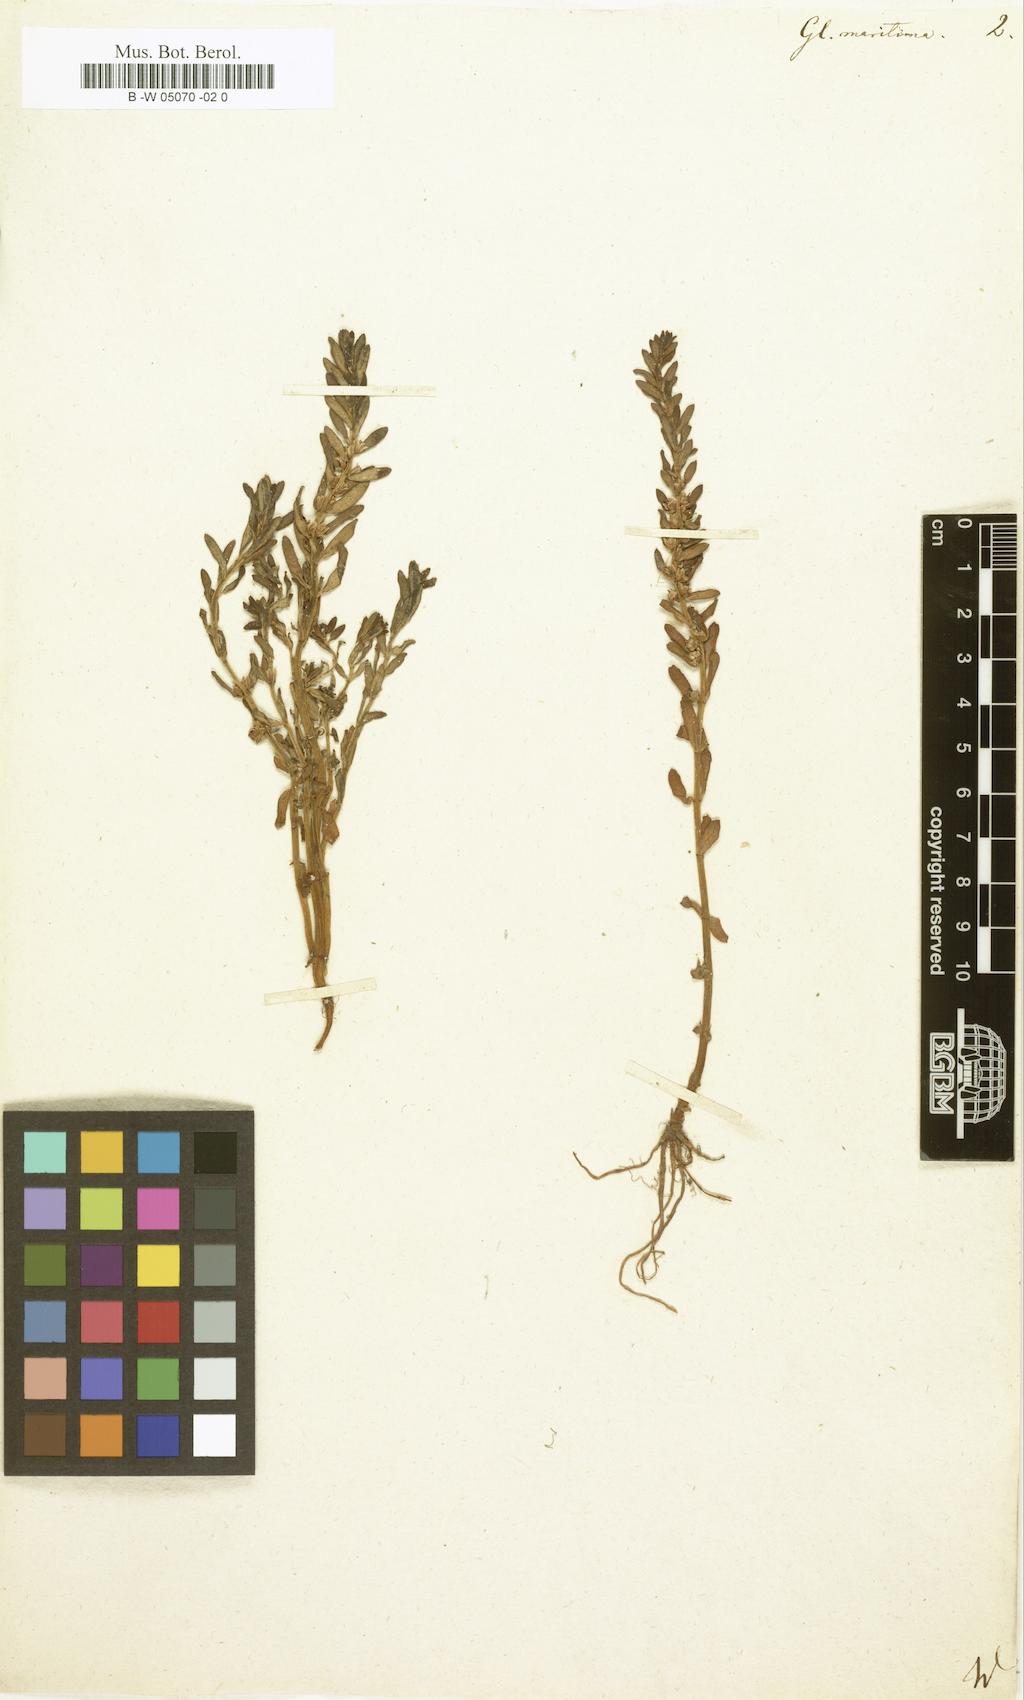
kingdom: Plantae
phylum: Tracheophyta
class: Magnoliopsida
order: Ericales
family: Primulaceae
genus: Lysimachia
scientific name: Lysimachia maritima
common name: Sea milkwort
